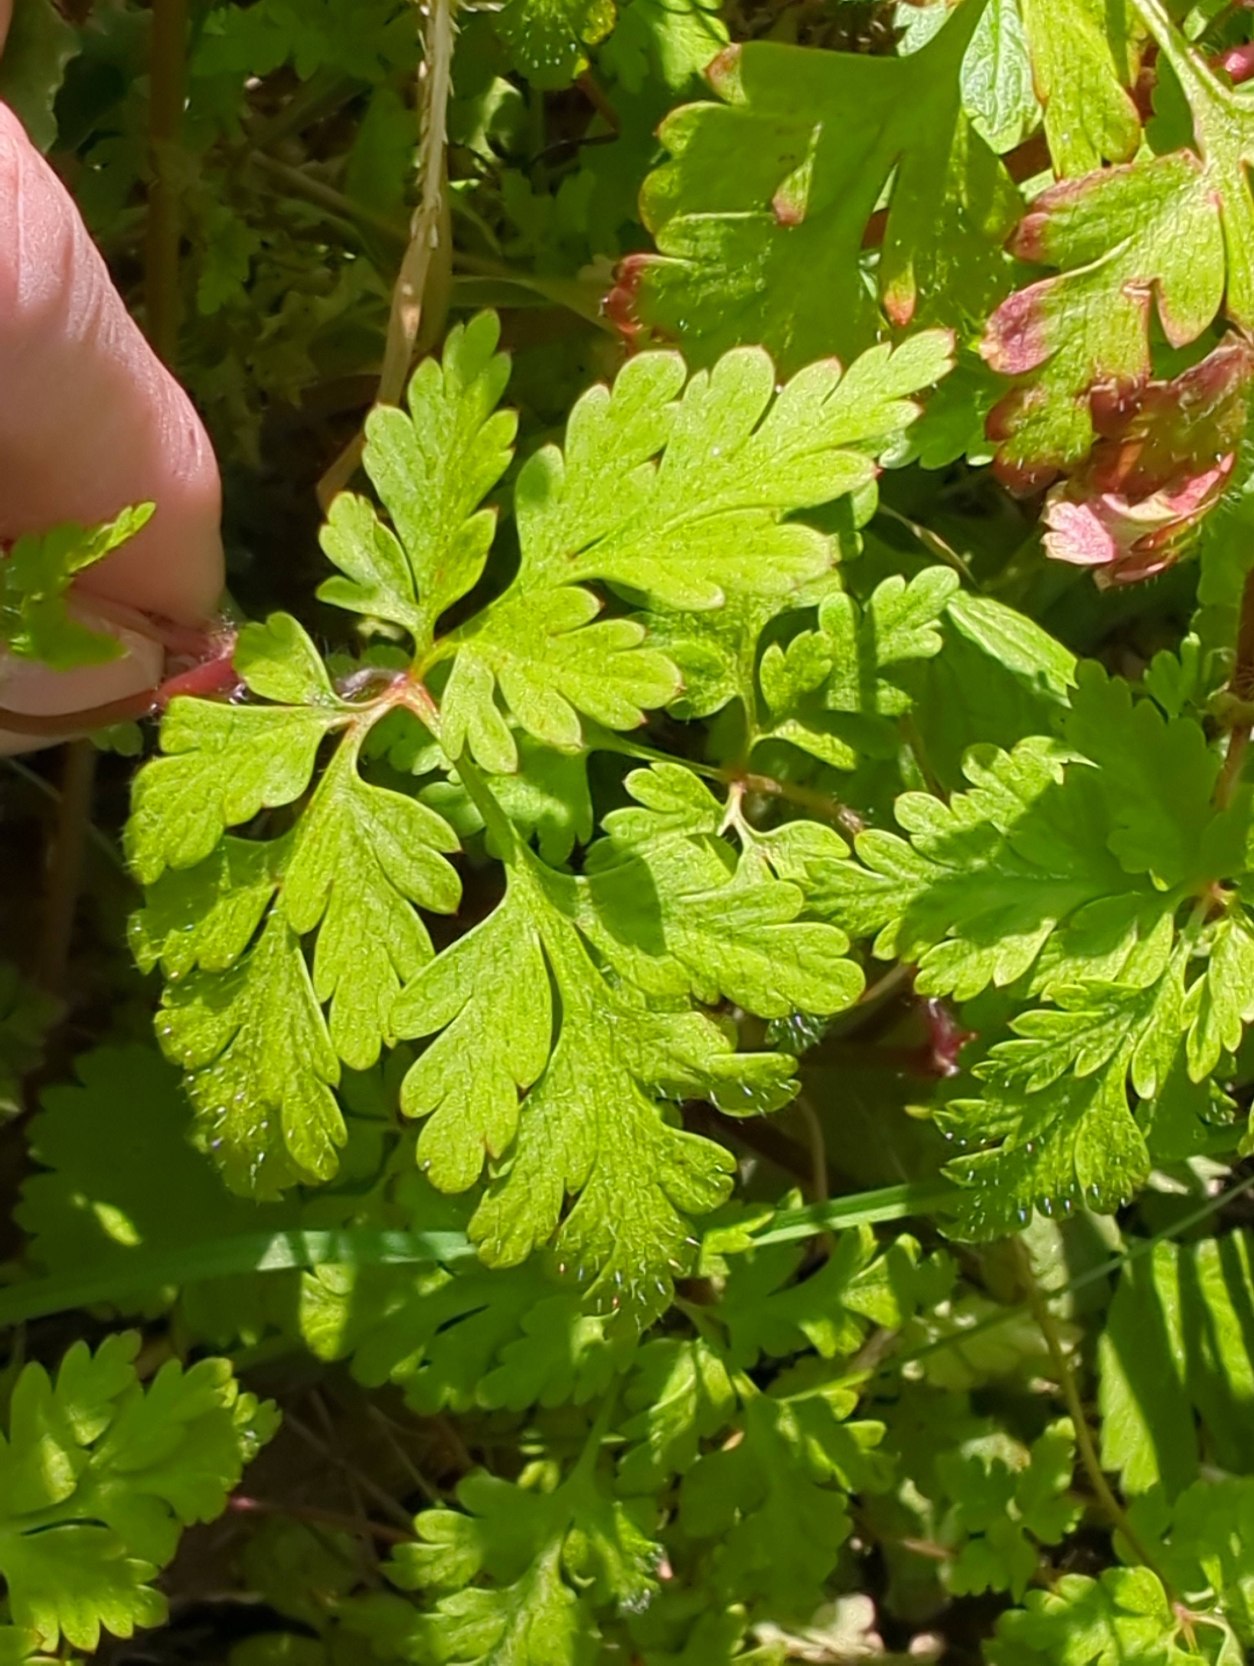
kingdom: Plantae
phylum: Tracheophyta
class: Magnoliopsida
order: Geraniales
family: Geraniaceae
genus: Geranium
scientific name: Geranium robertianum
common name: Stinkende storkenæb
